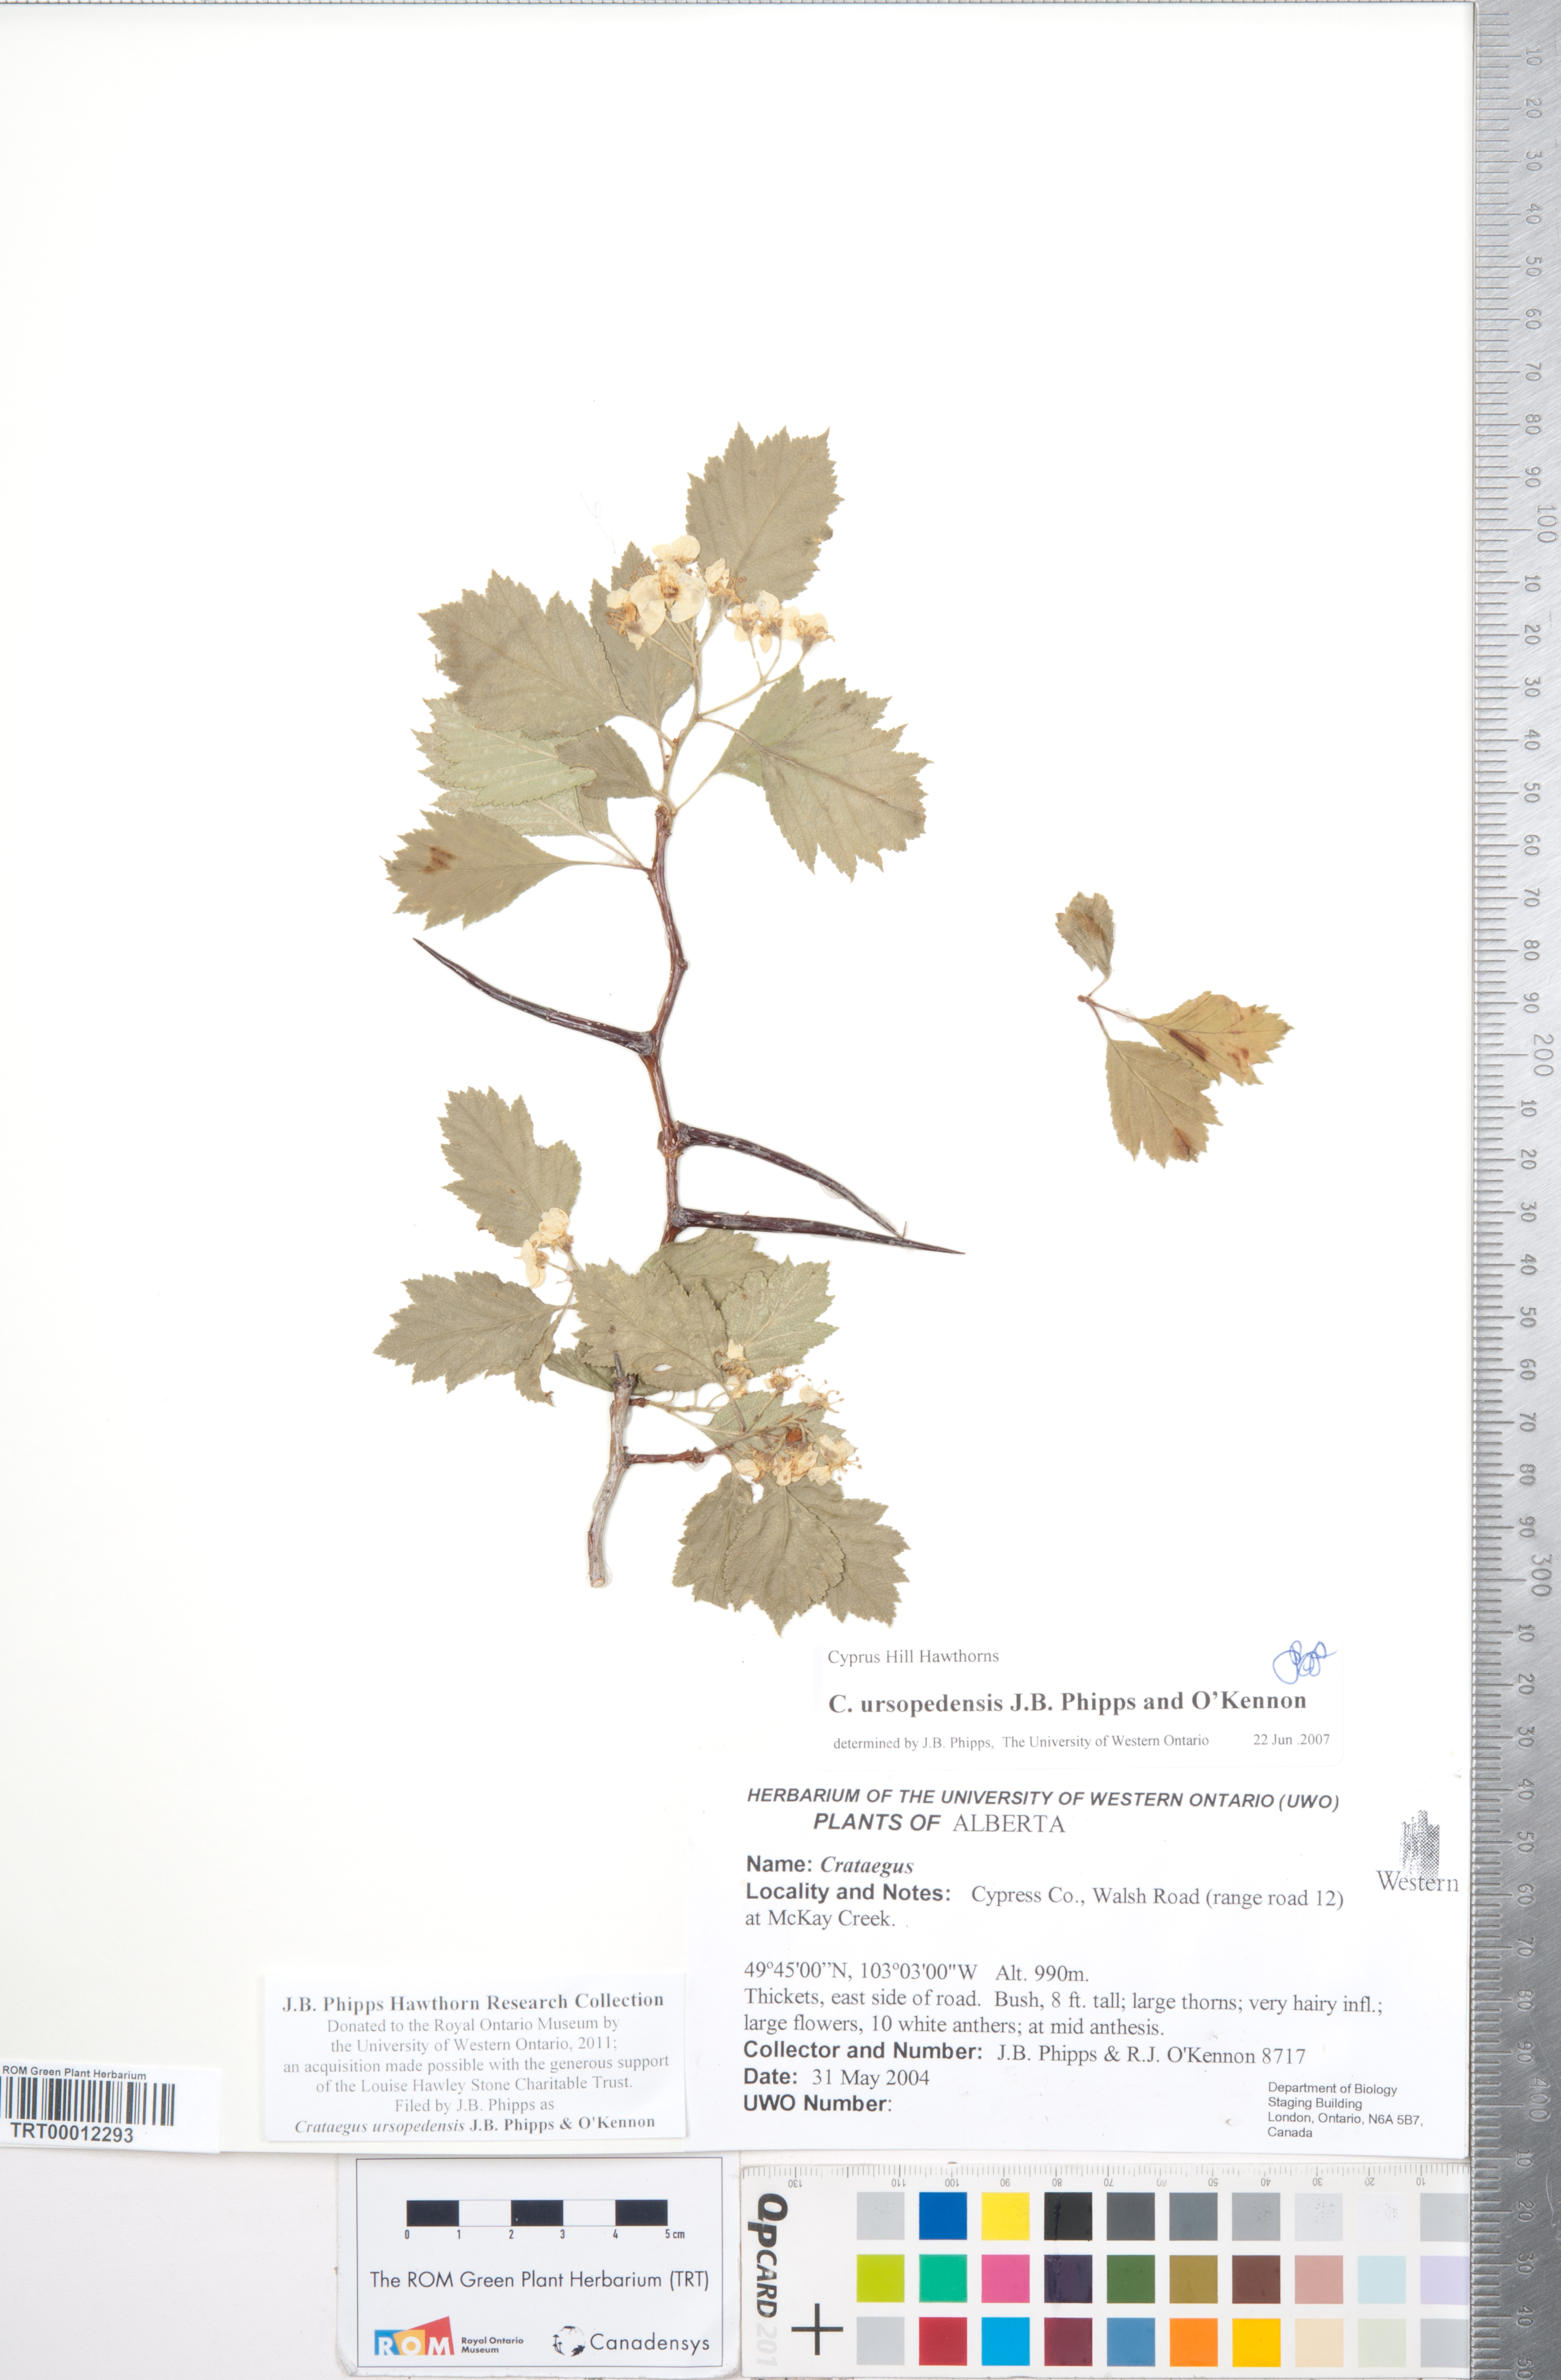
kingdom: Plantae
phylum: Tracheophyta
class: Magnoliopsida
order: Rosales
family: Rosaceae
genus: Crataegus
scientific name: Crataegus ursopedensis
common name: Bears paw hawthorn
